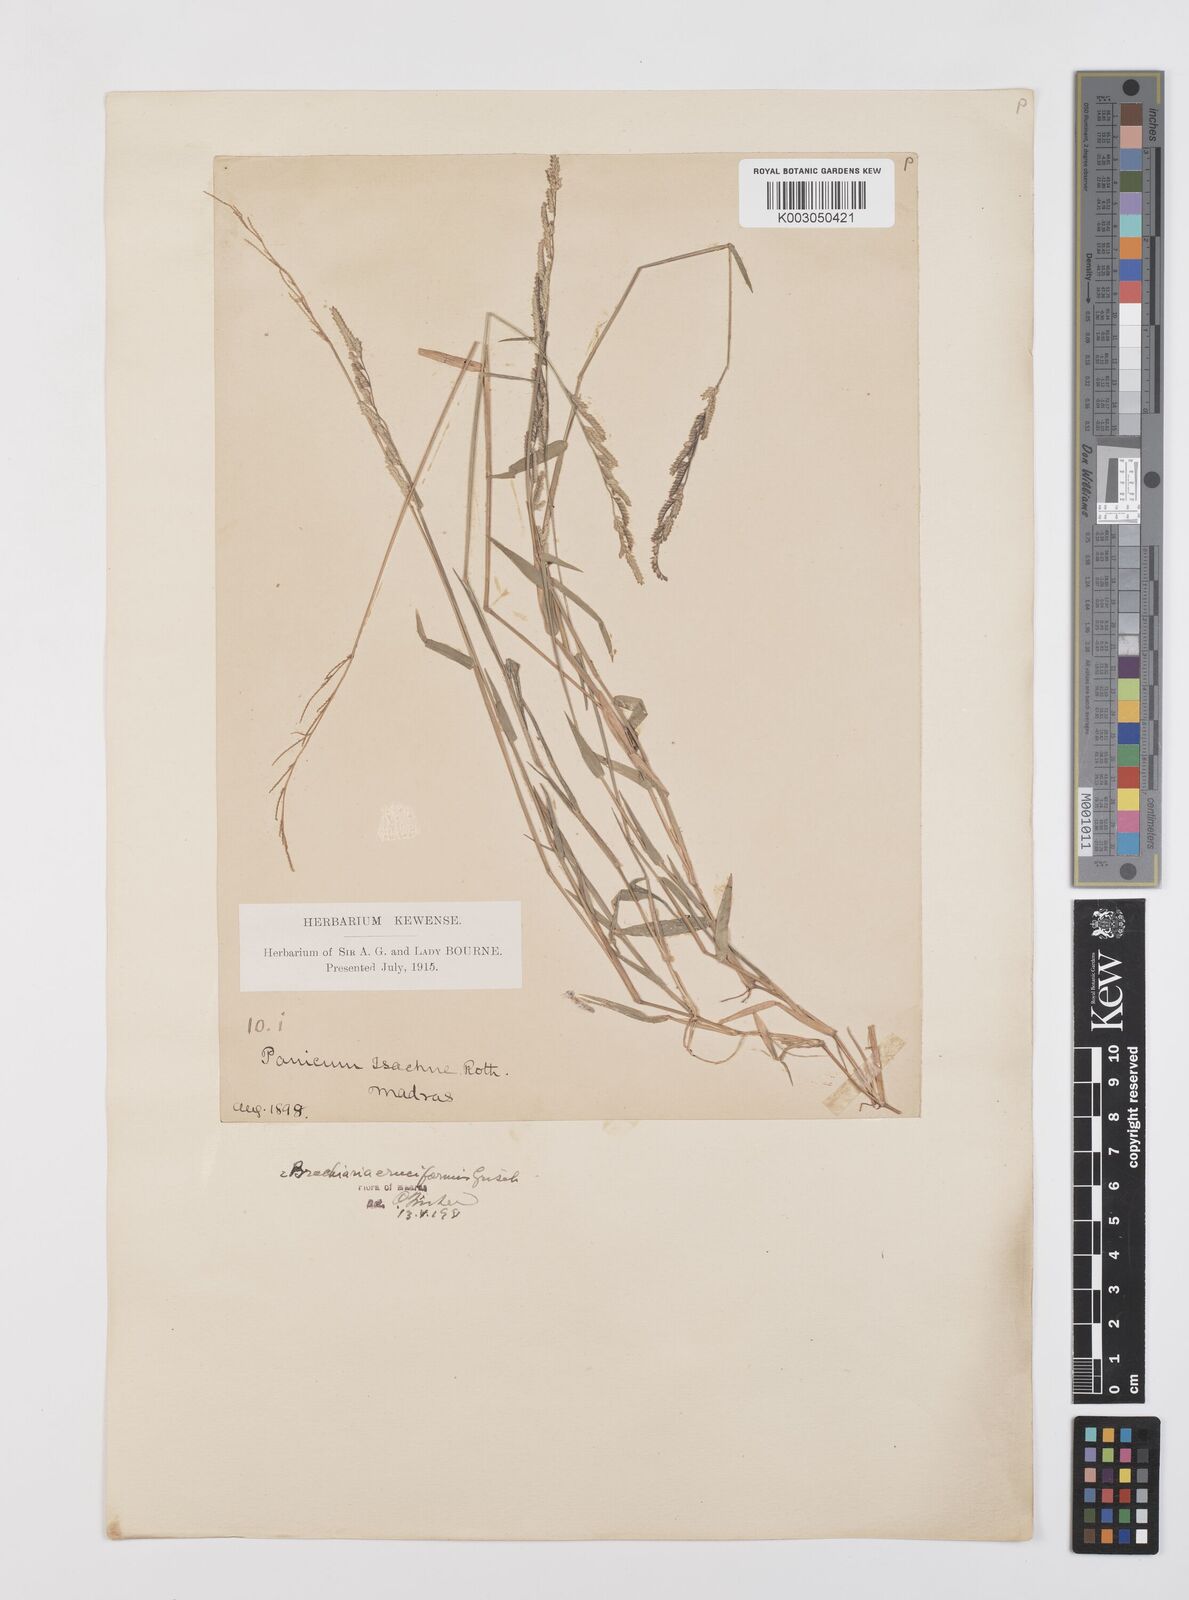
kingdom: Plantae
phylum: Tracheophyta
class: Liliopsida
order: Poales
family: Poaceae
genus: Moorochloa
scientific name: Moorochloa eruciformis
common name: Sweet signalgrass
